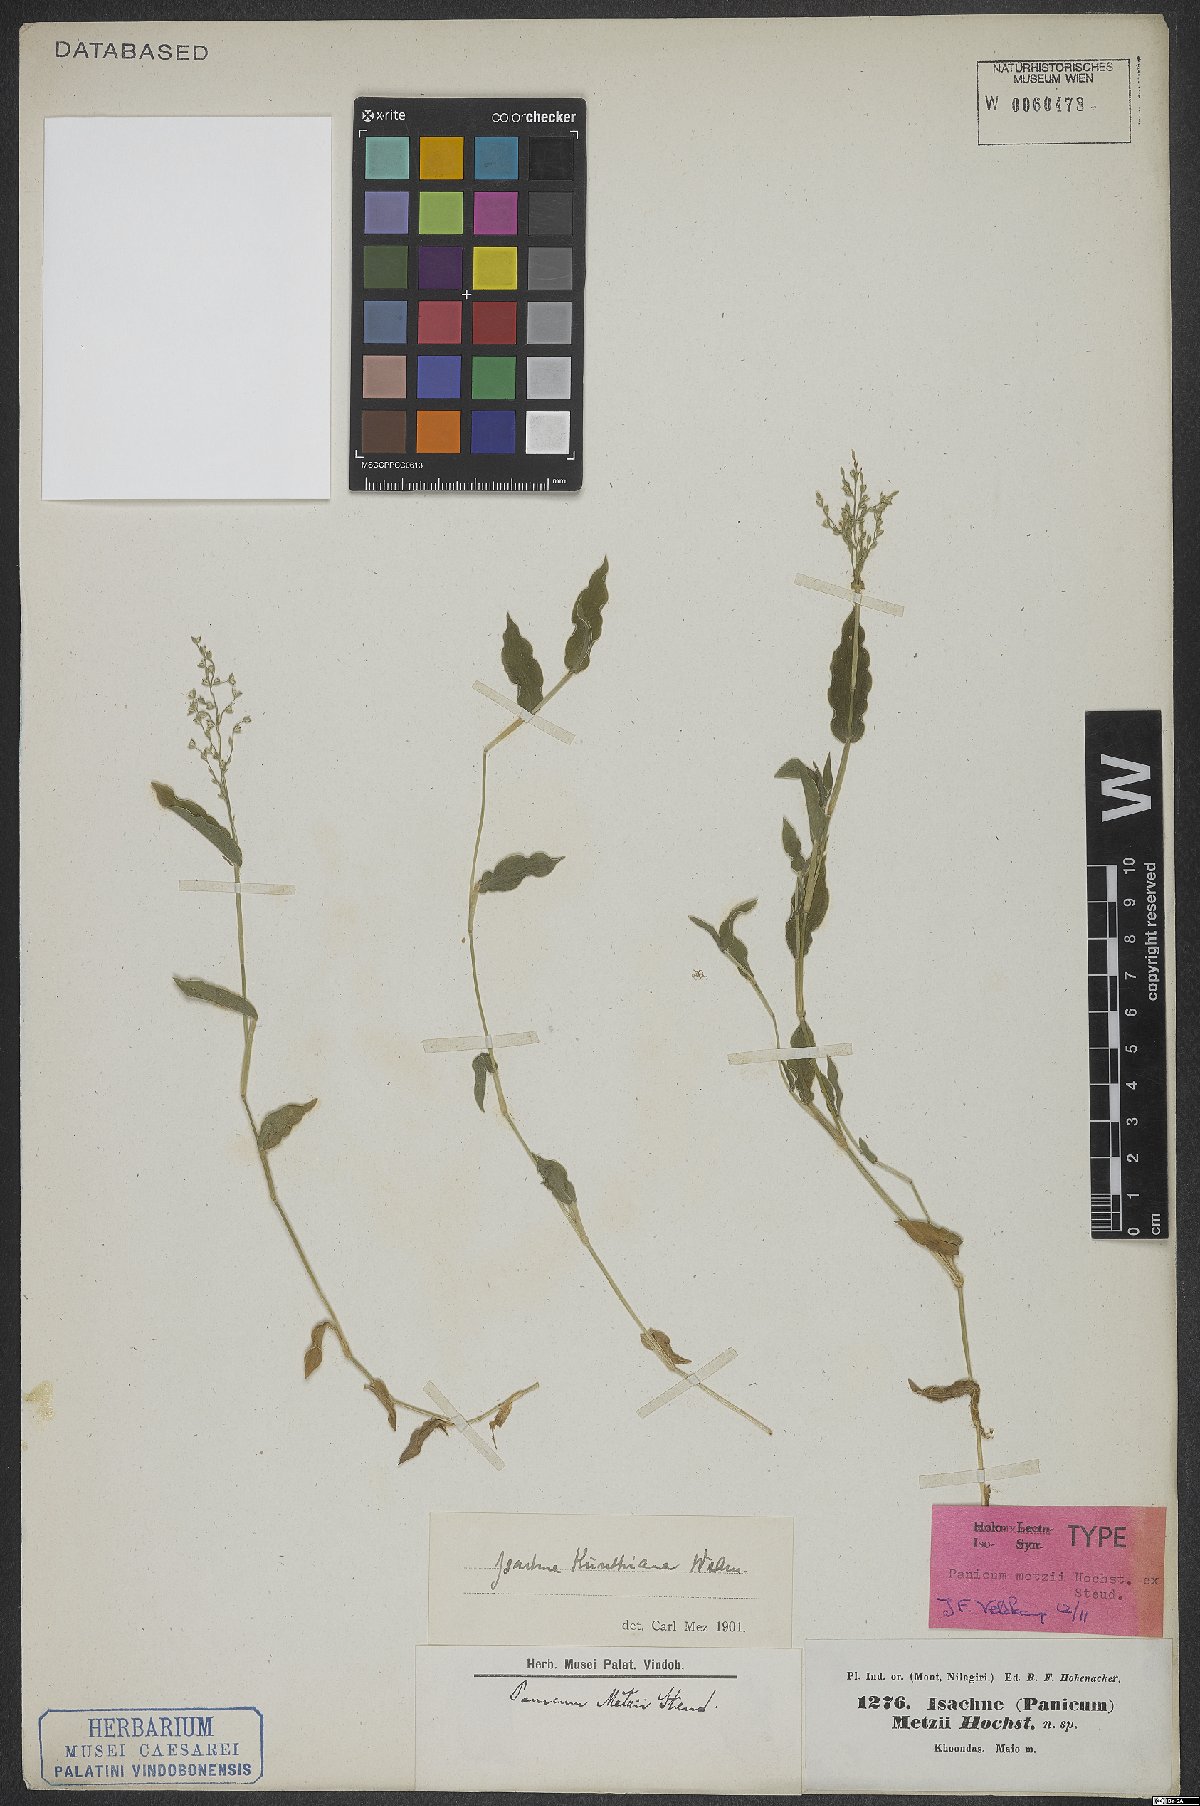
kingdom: Plantae
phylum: Tracheophyta
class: Liliopsida
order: Poales
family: Poaceae
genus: Isachne
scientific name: Isachne kunthiana
